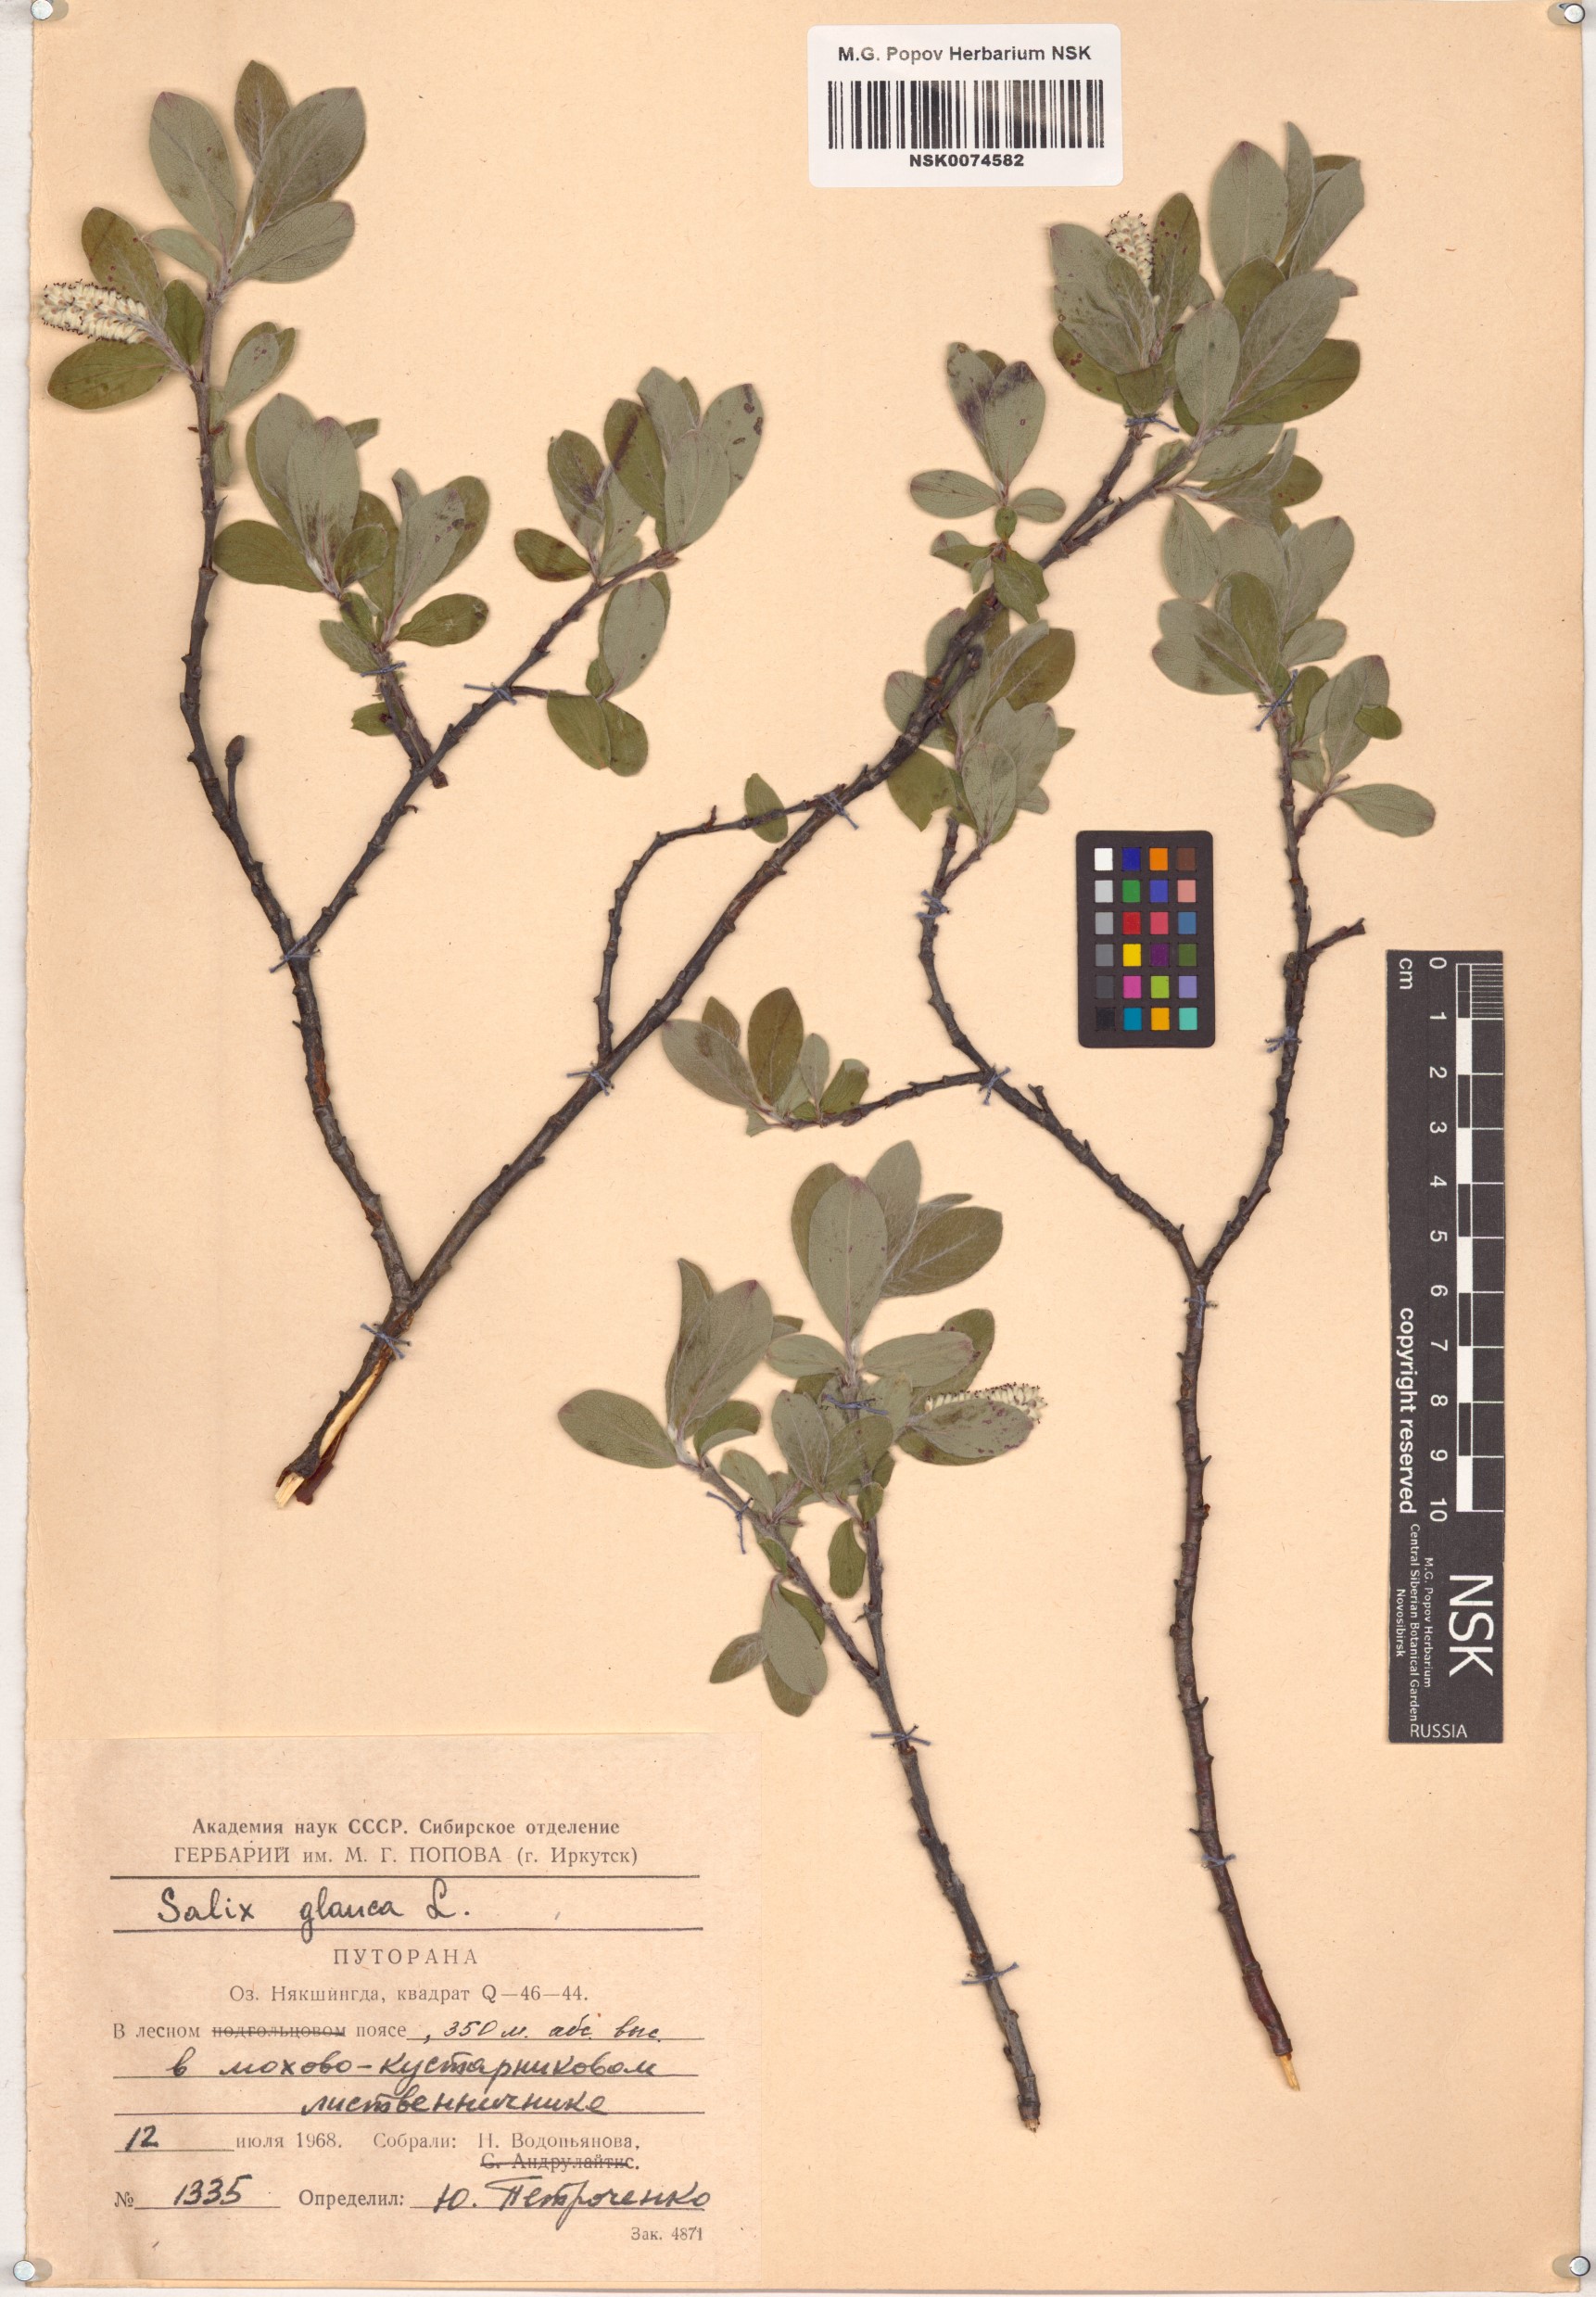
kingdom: Plantae
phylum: Tracheophyta
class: Magnoliopsida
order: Malpighiales
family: Salicaceae
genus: Salix
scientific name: Salix glauca
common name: Glaucous willow
